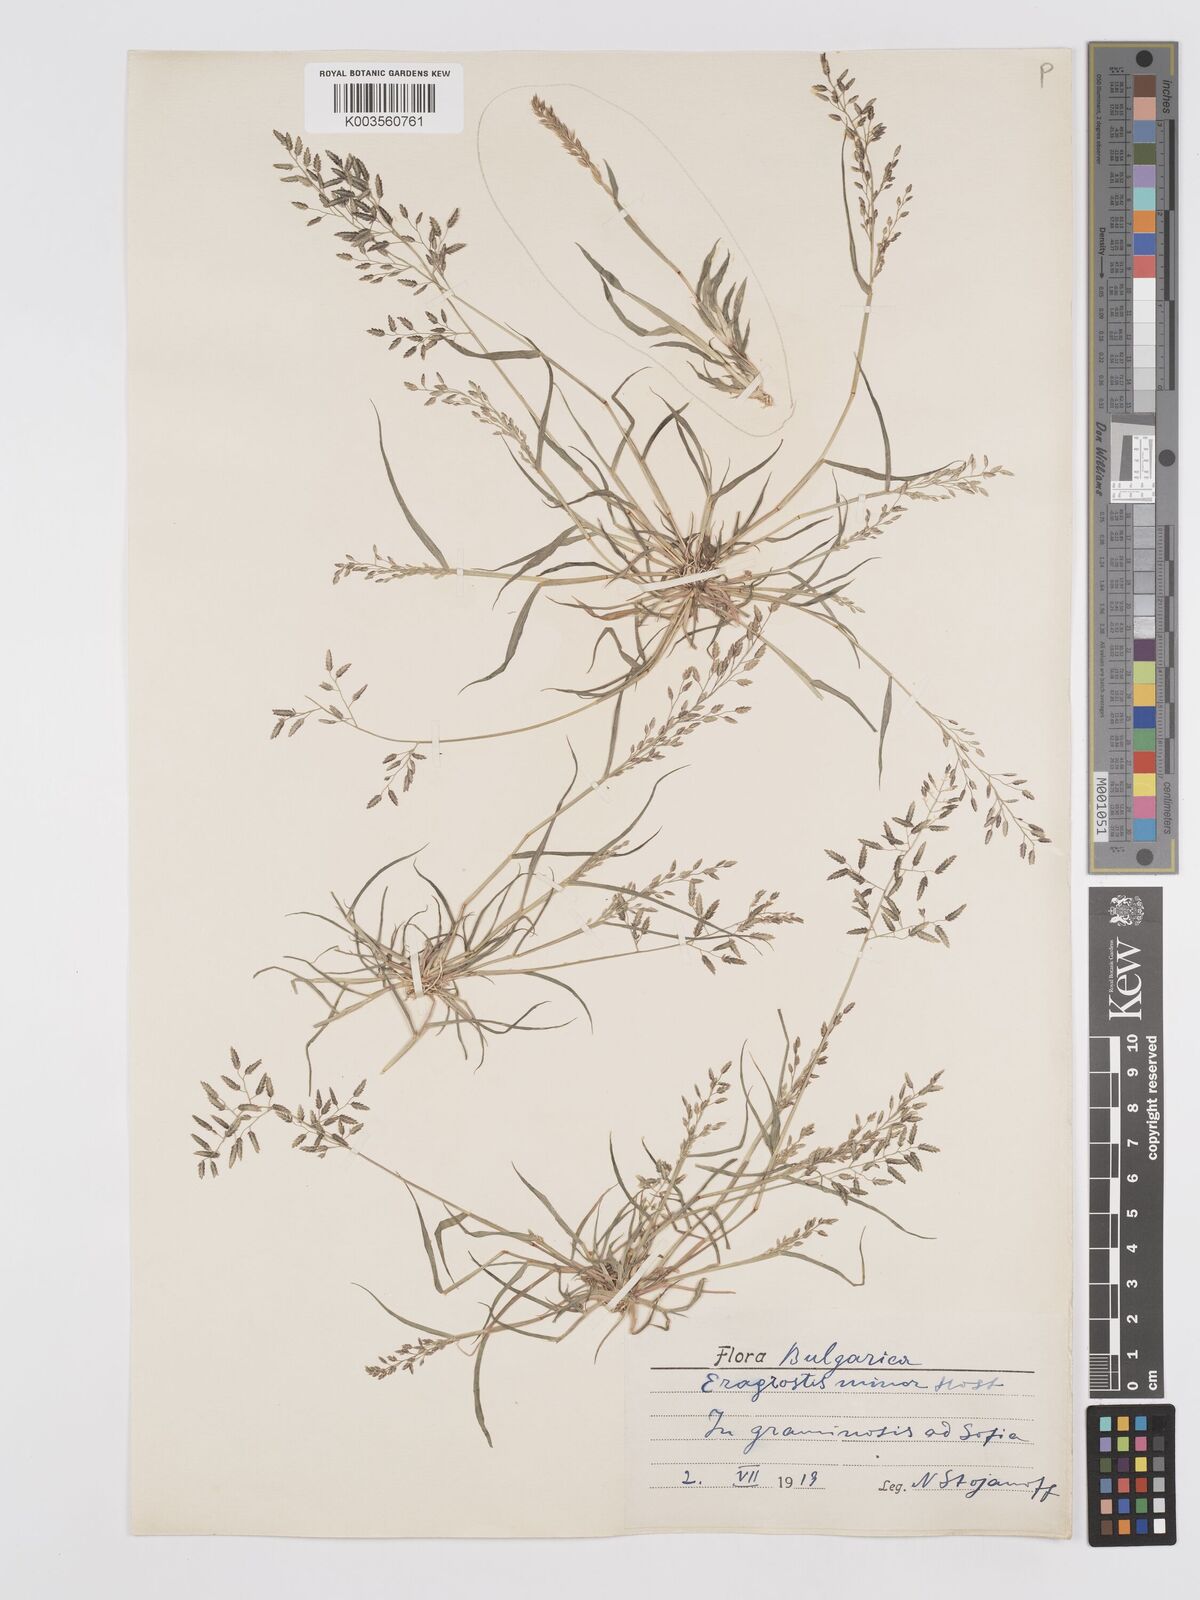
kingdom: Plantae
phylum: Tracheophyta
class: Liliopsida
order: Poales
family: Poaceae
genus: Eragrostis
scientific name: Eragrostis minor
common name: Small love-grass
